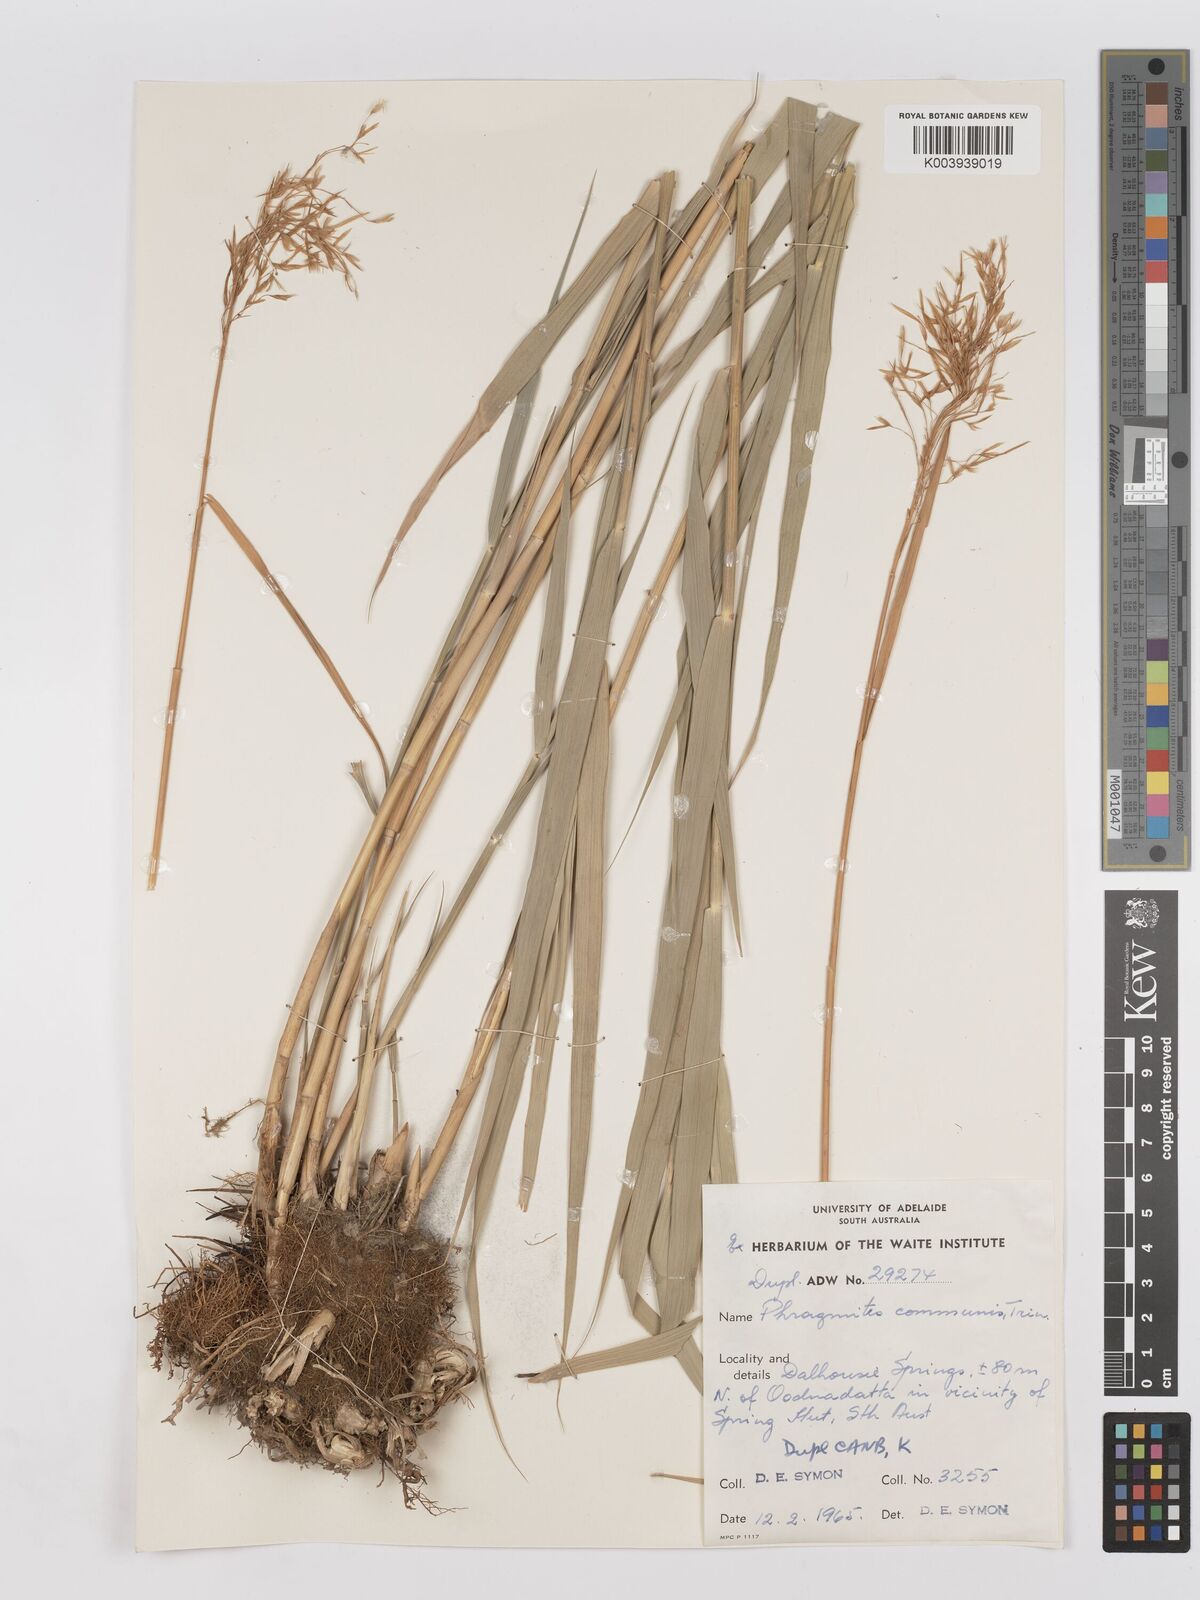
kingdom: Plantae
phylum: Tracheophyta
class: Liliopsida
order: Poales
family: Poaceae
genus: Phragmites
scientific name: Phragmites australis
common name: Common reed
